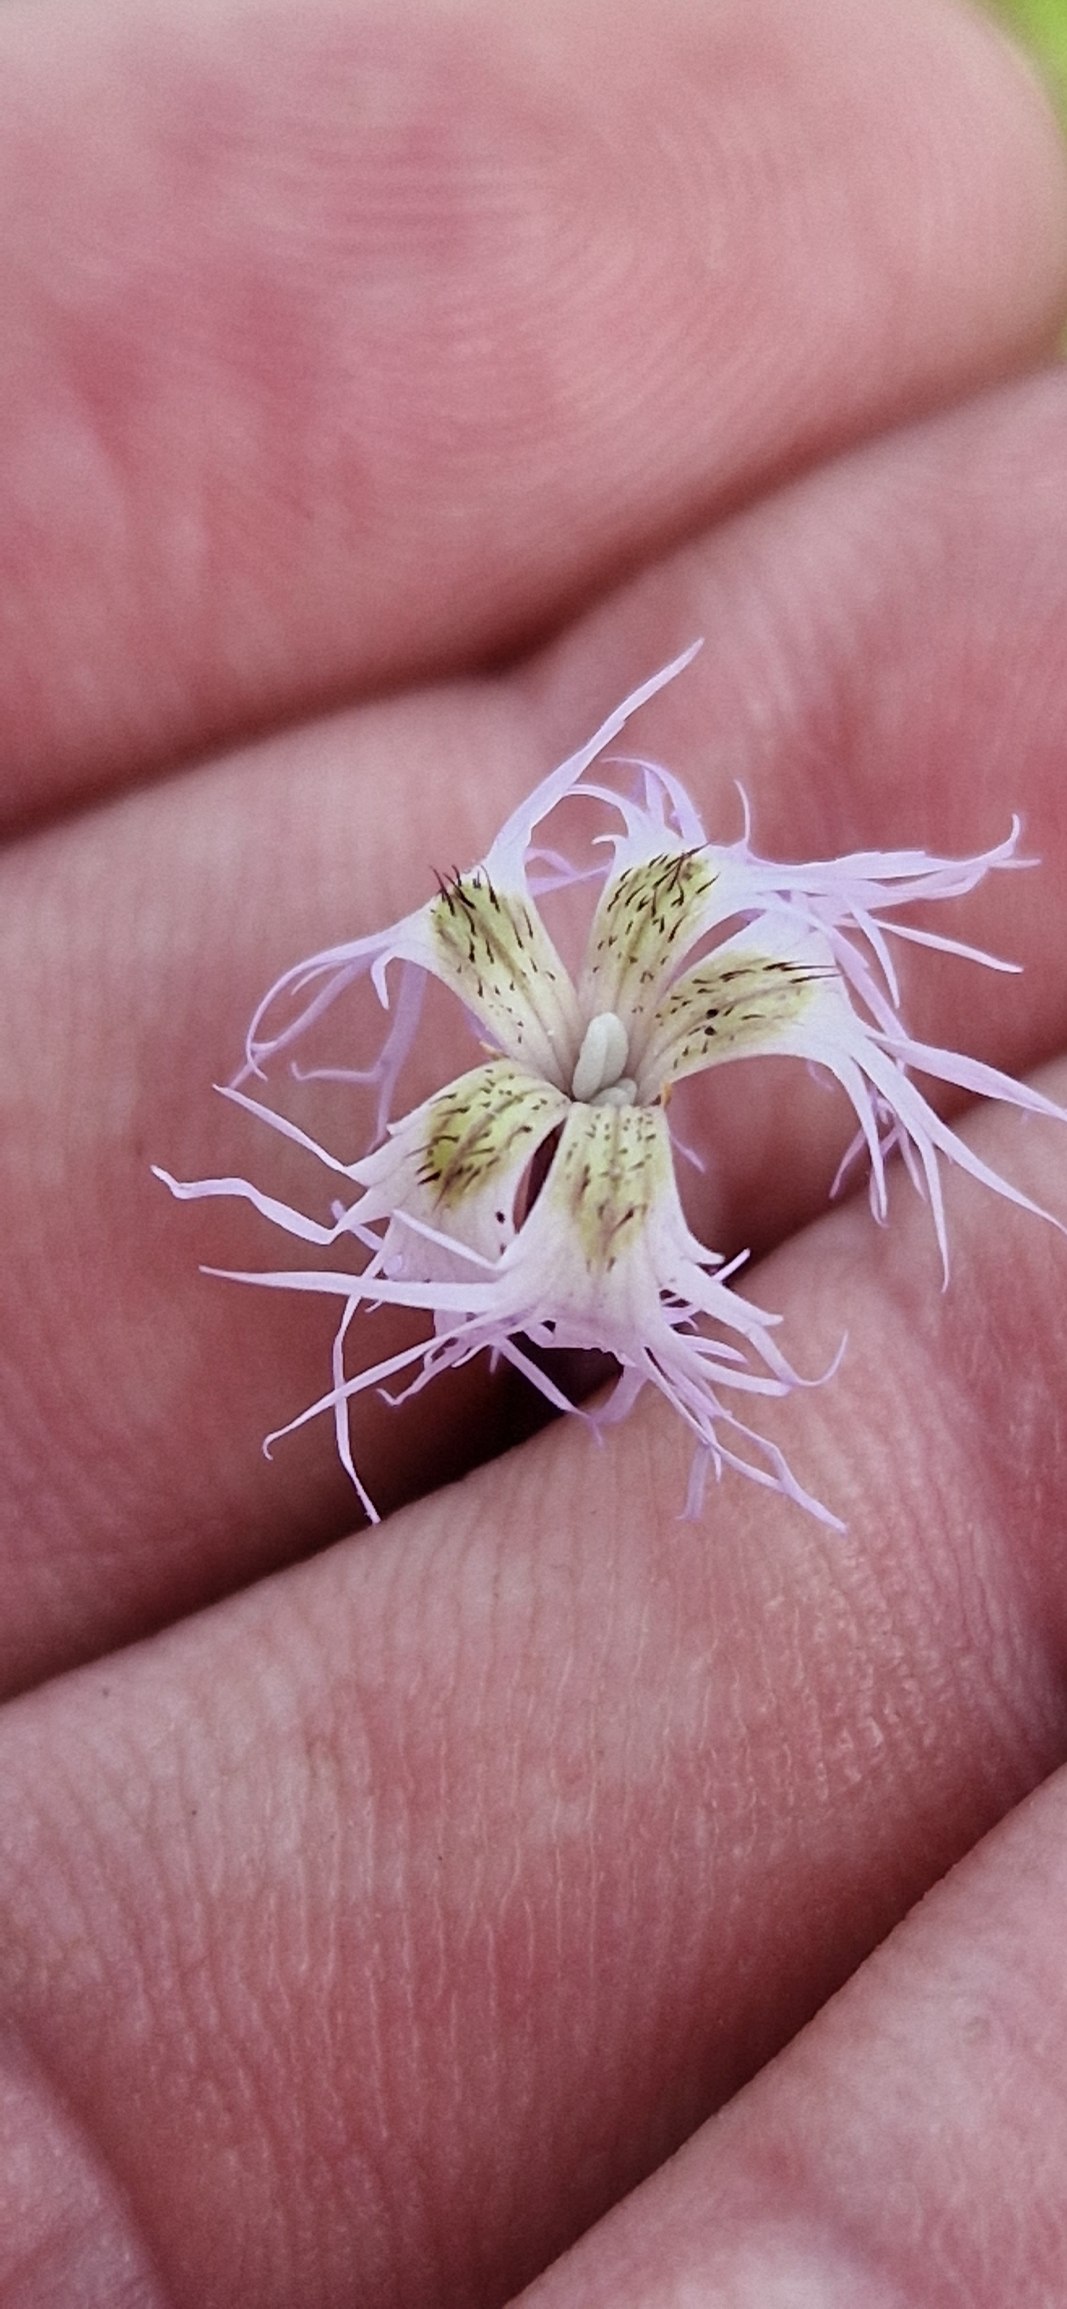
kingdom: Plantae
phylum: Tracheophyta
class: Magnoliopsida
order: Caryophyllales
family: Caryophyllaceae
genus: Dianthus
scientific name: Dianthus superbus
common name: Strand-nellike
